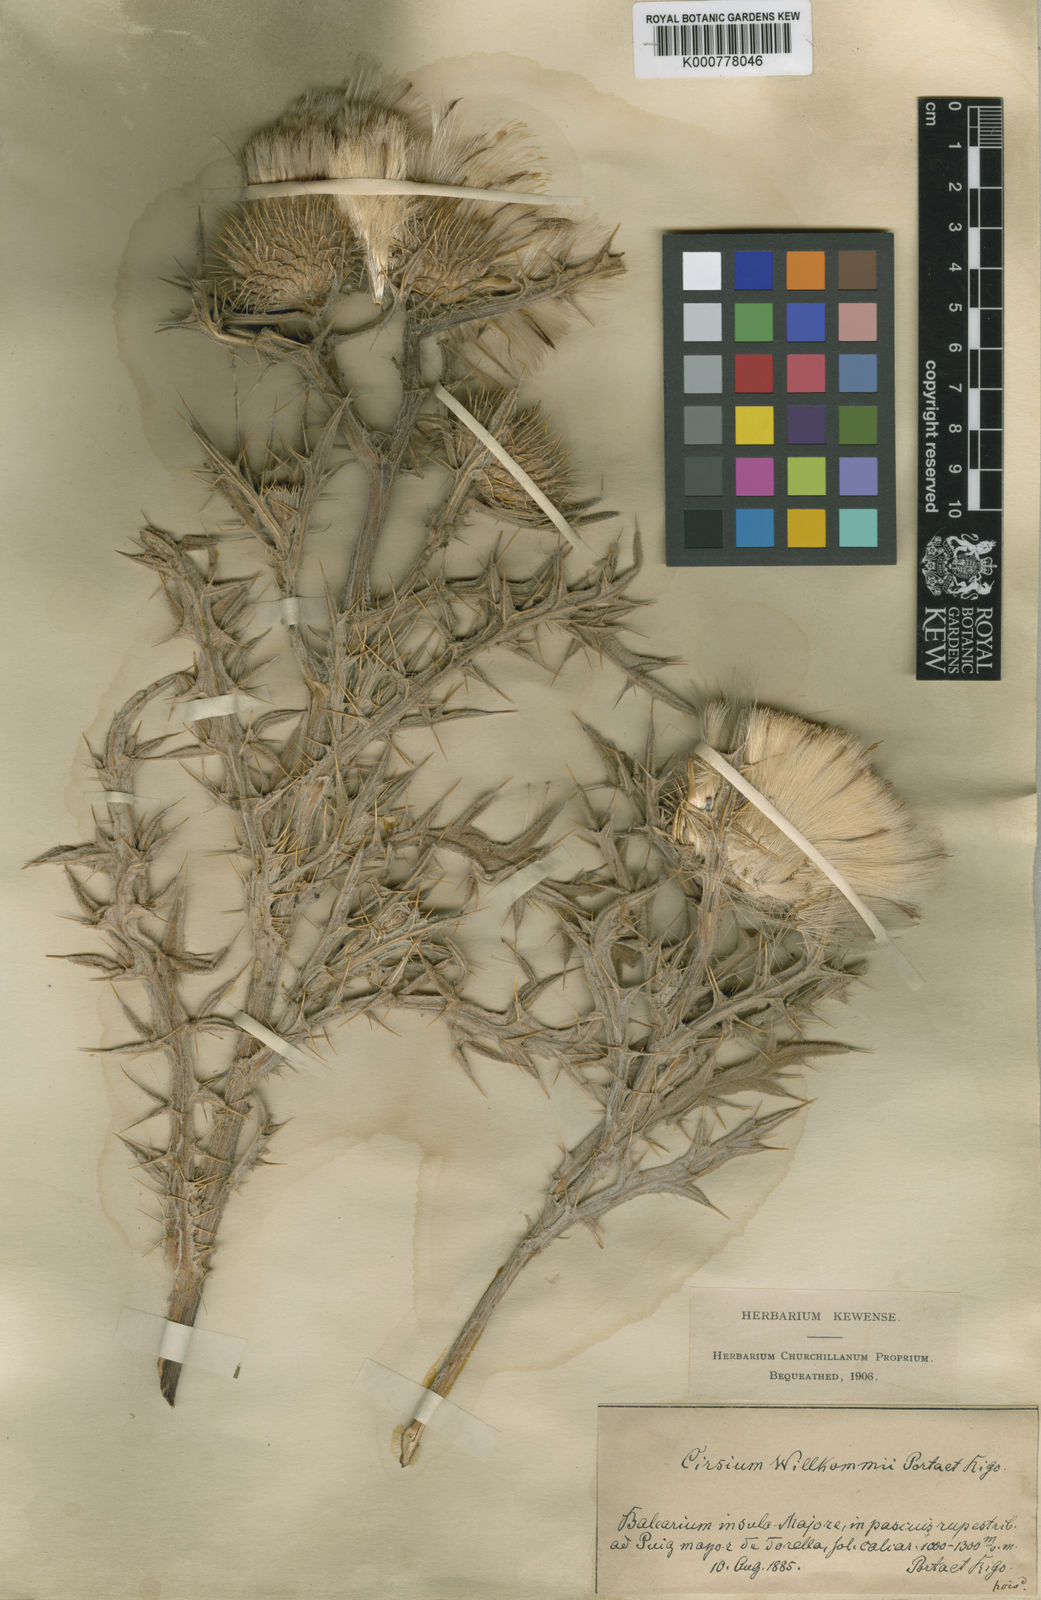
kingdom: Plantae
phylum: Tracheophyta
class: Magnoliopsida
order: Asterales
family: Asteraceae
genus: Lophiolepis
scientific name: Lophiolepis echinata
